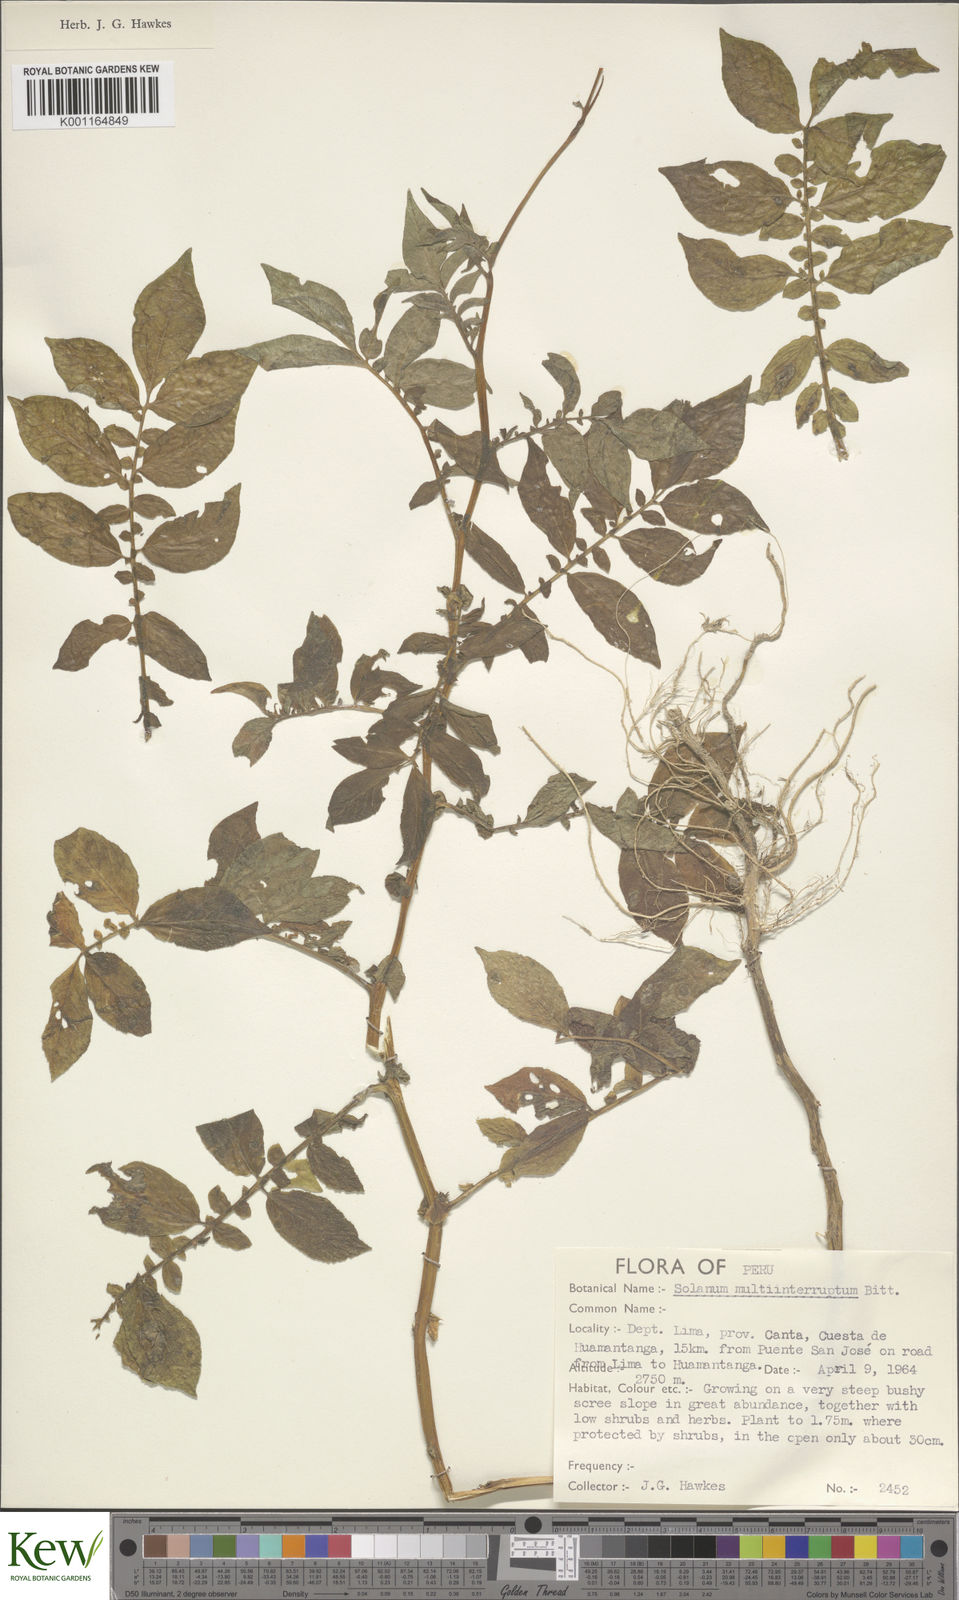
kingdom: Plantae
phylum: Tracheophyta
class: Magnoliopsida
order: Solanales
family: Solanaceae
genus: Solanum
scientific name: Solanum multiinterruptum
